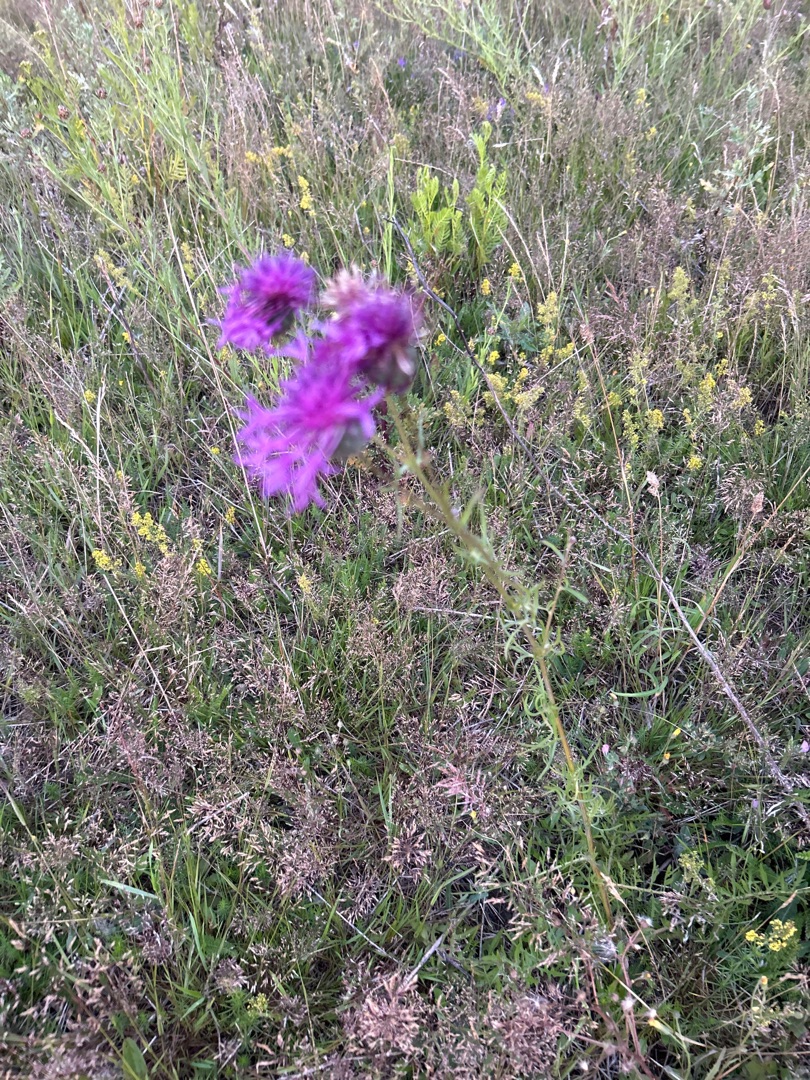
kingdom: Plantae
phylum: Tracheophyta
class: Magnoliopsida
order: Asterales
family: Asteraceae
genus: Centaurea
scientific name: Centaurea scabiosa
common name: Stor knopurt
